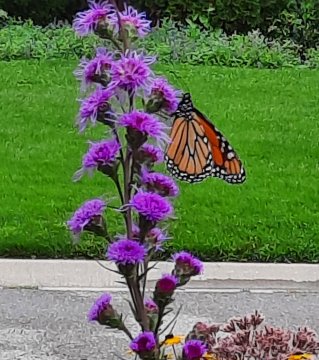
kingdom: Animalia
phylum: Arthropoda
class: Insecta
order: Lepidoptera
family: Nymphalidae
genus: Danaus
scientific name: Danaus plexippus
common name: Monarch
